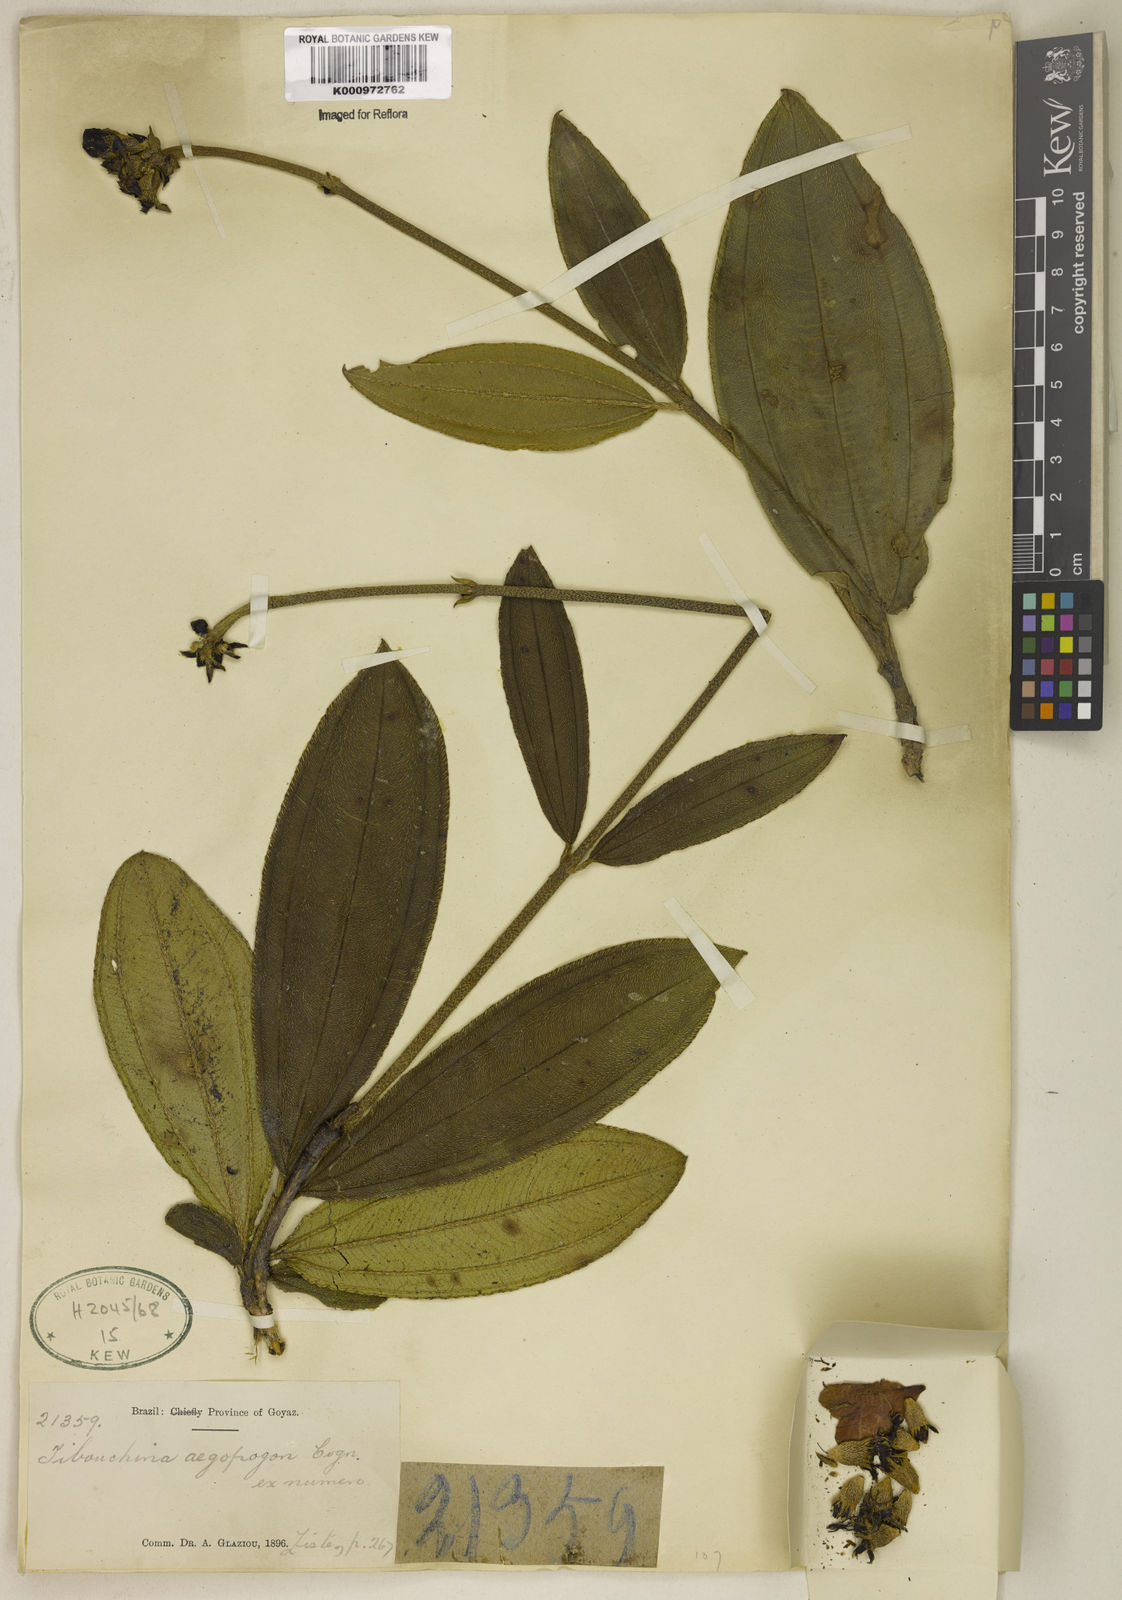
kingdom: Plantae
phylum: Tracheophyta
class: Magnoliopsida
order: Myrtales
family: Melastomataceae
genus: Pleroma
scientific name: Pleroma aegopogon
